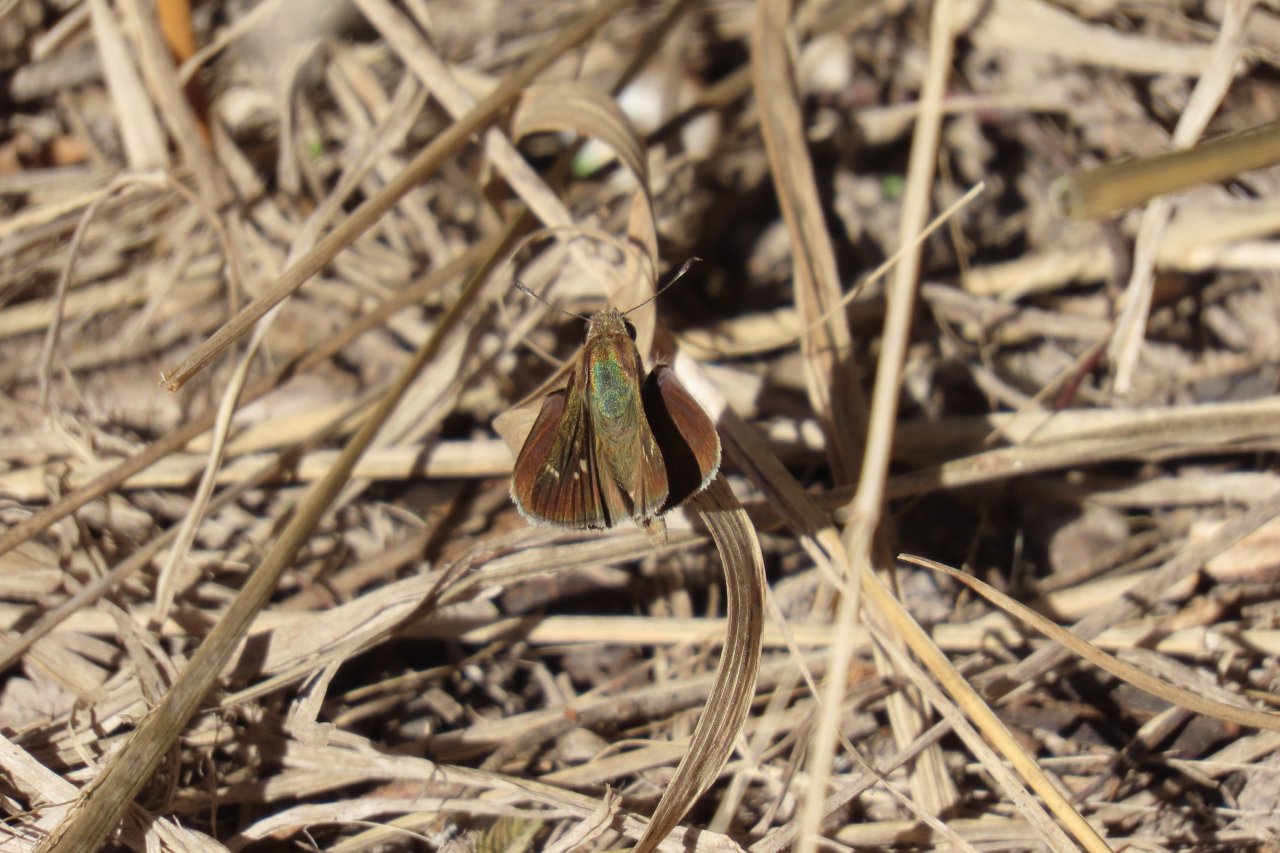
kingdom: Animalia
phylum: Arthropoda
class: Insecta
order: Lepidoptera
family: Hesperiidae
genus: Lerodea
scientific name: Lerodea eufala
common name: Eufala Skipper
